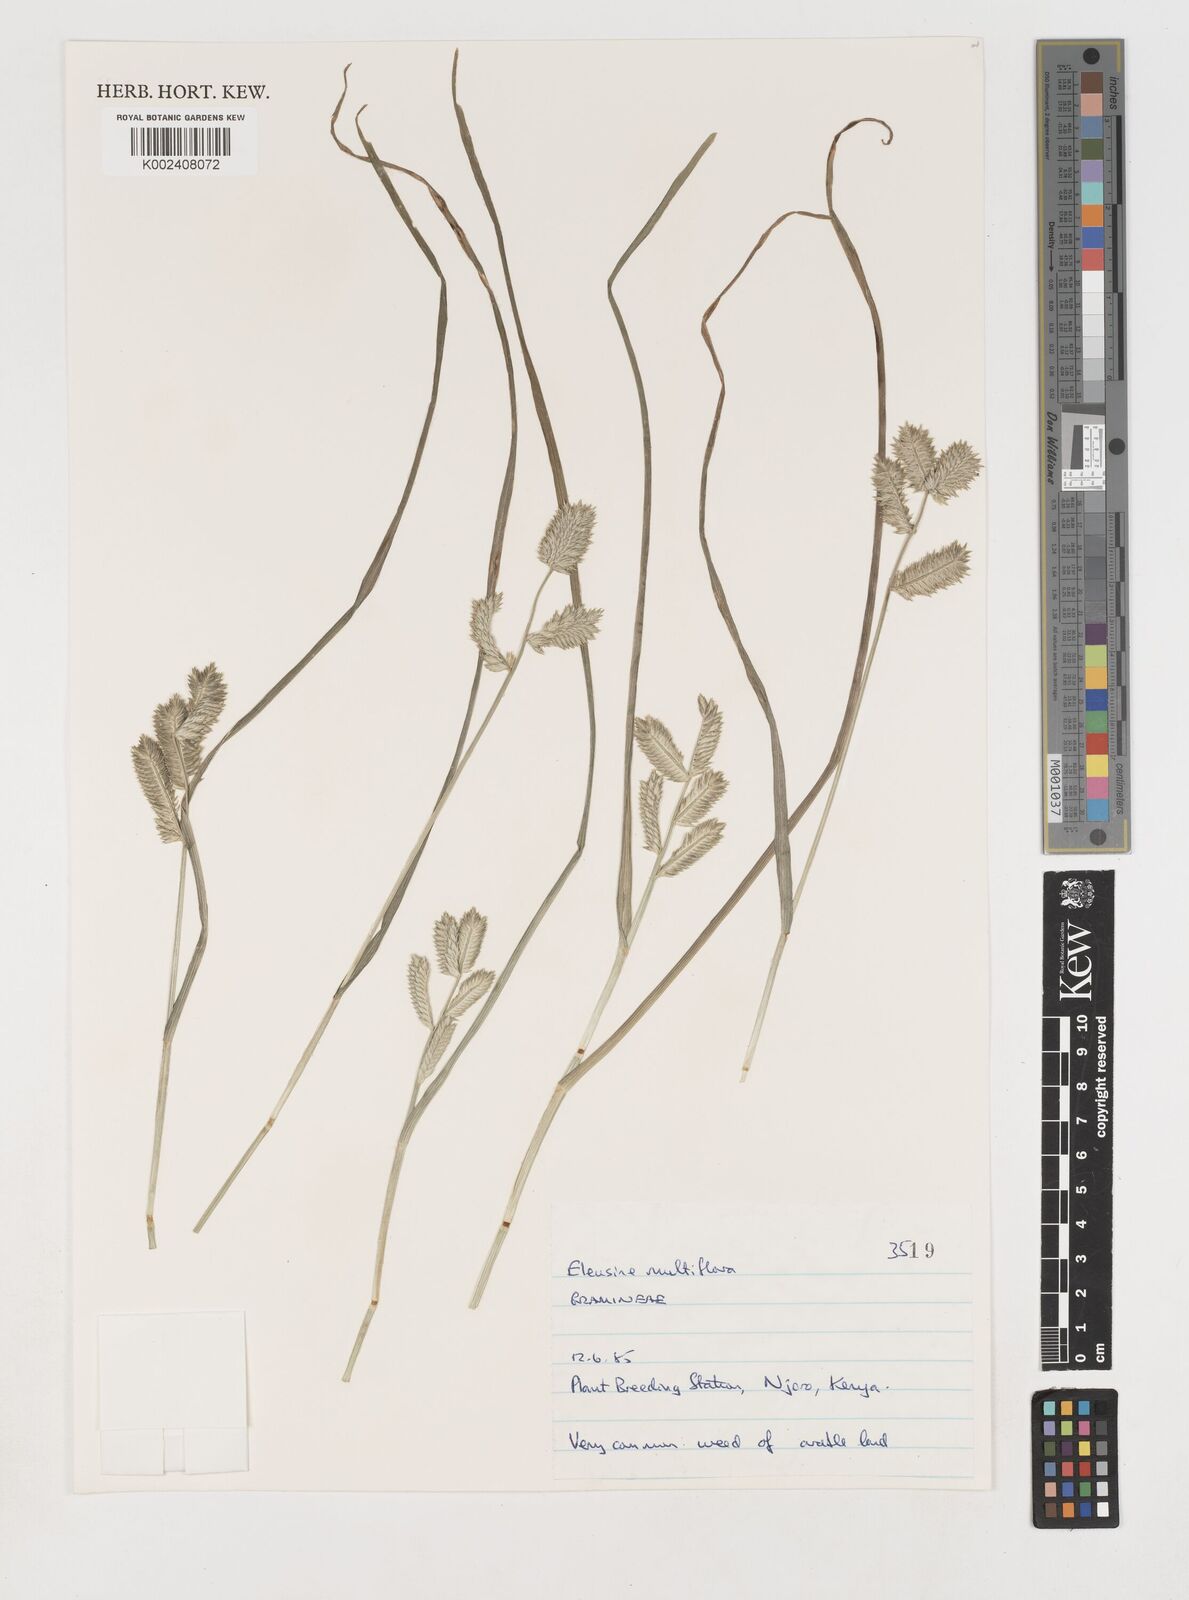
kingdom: Plantae
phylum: Tracheophyta
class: Liliopsida
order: Poales
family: Poaceae
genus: Eleusine
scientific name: Eleusine multiflora
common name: Fat-spiked yard-grass
